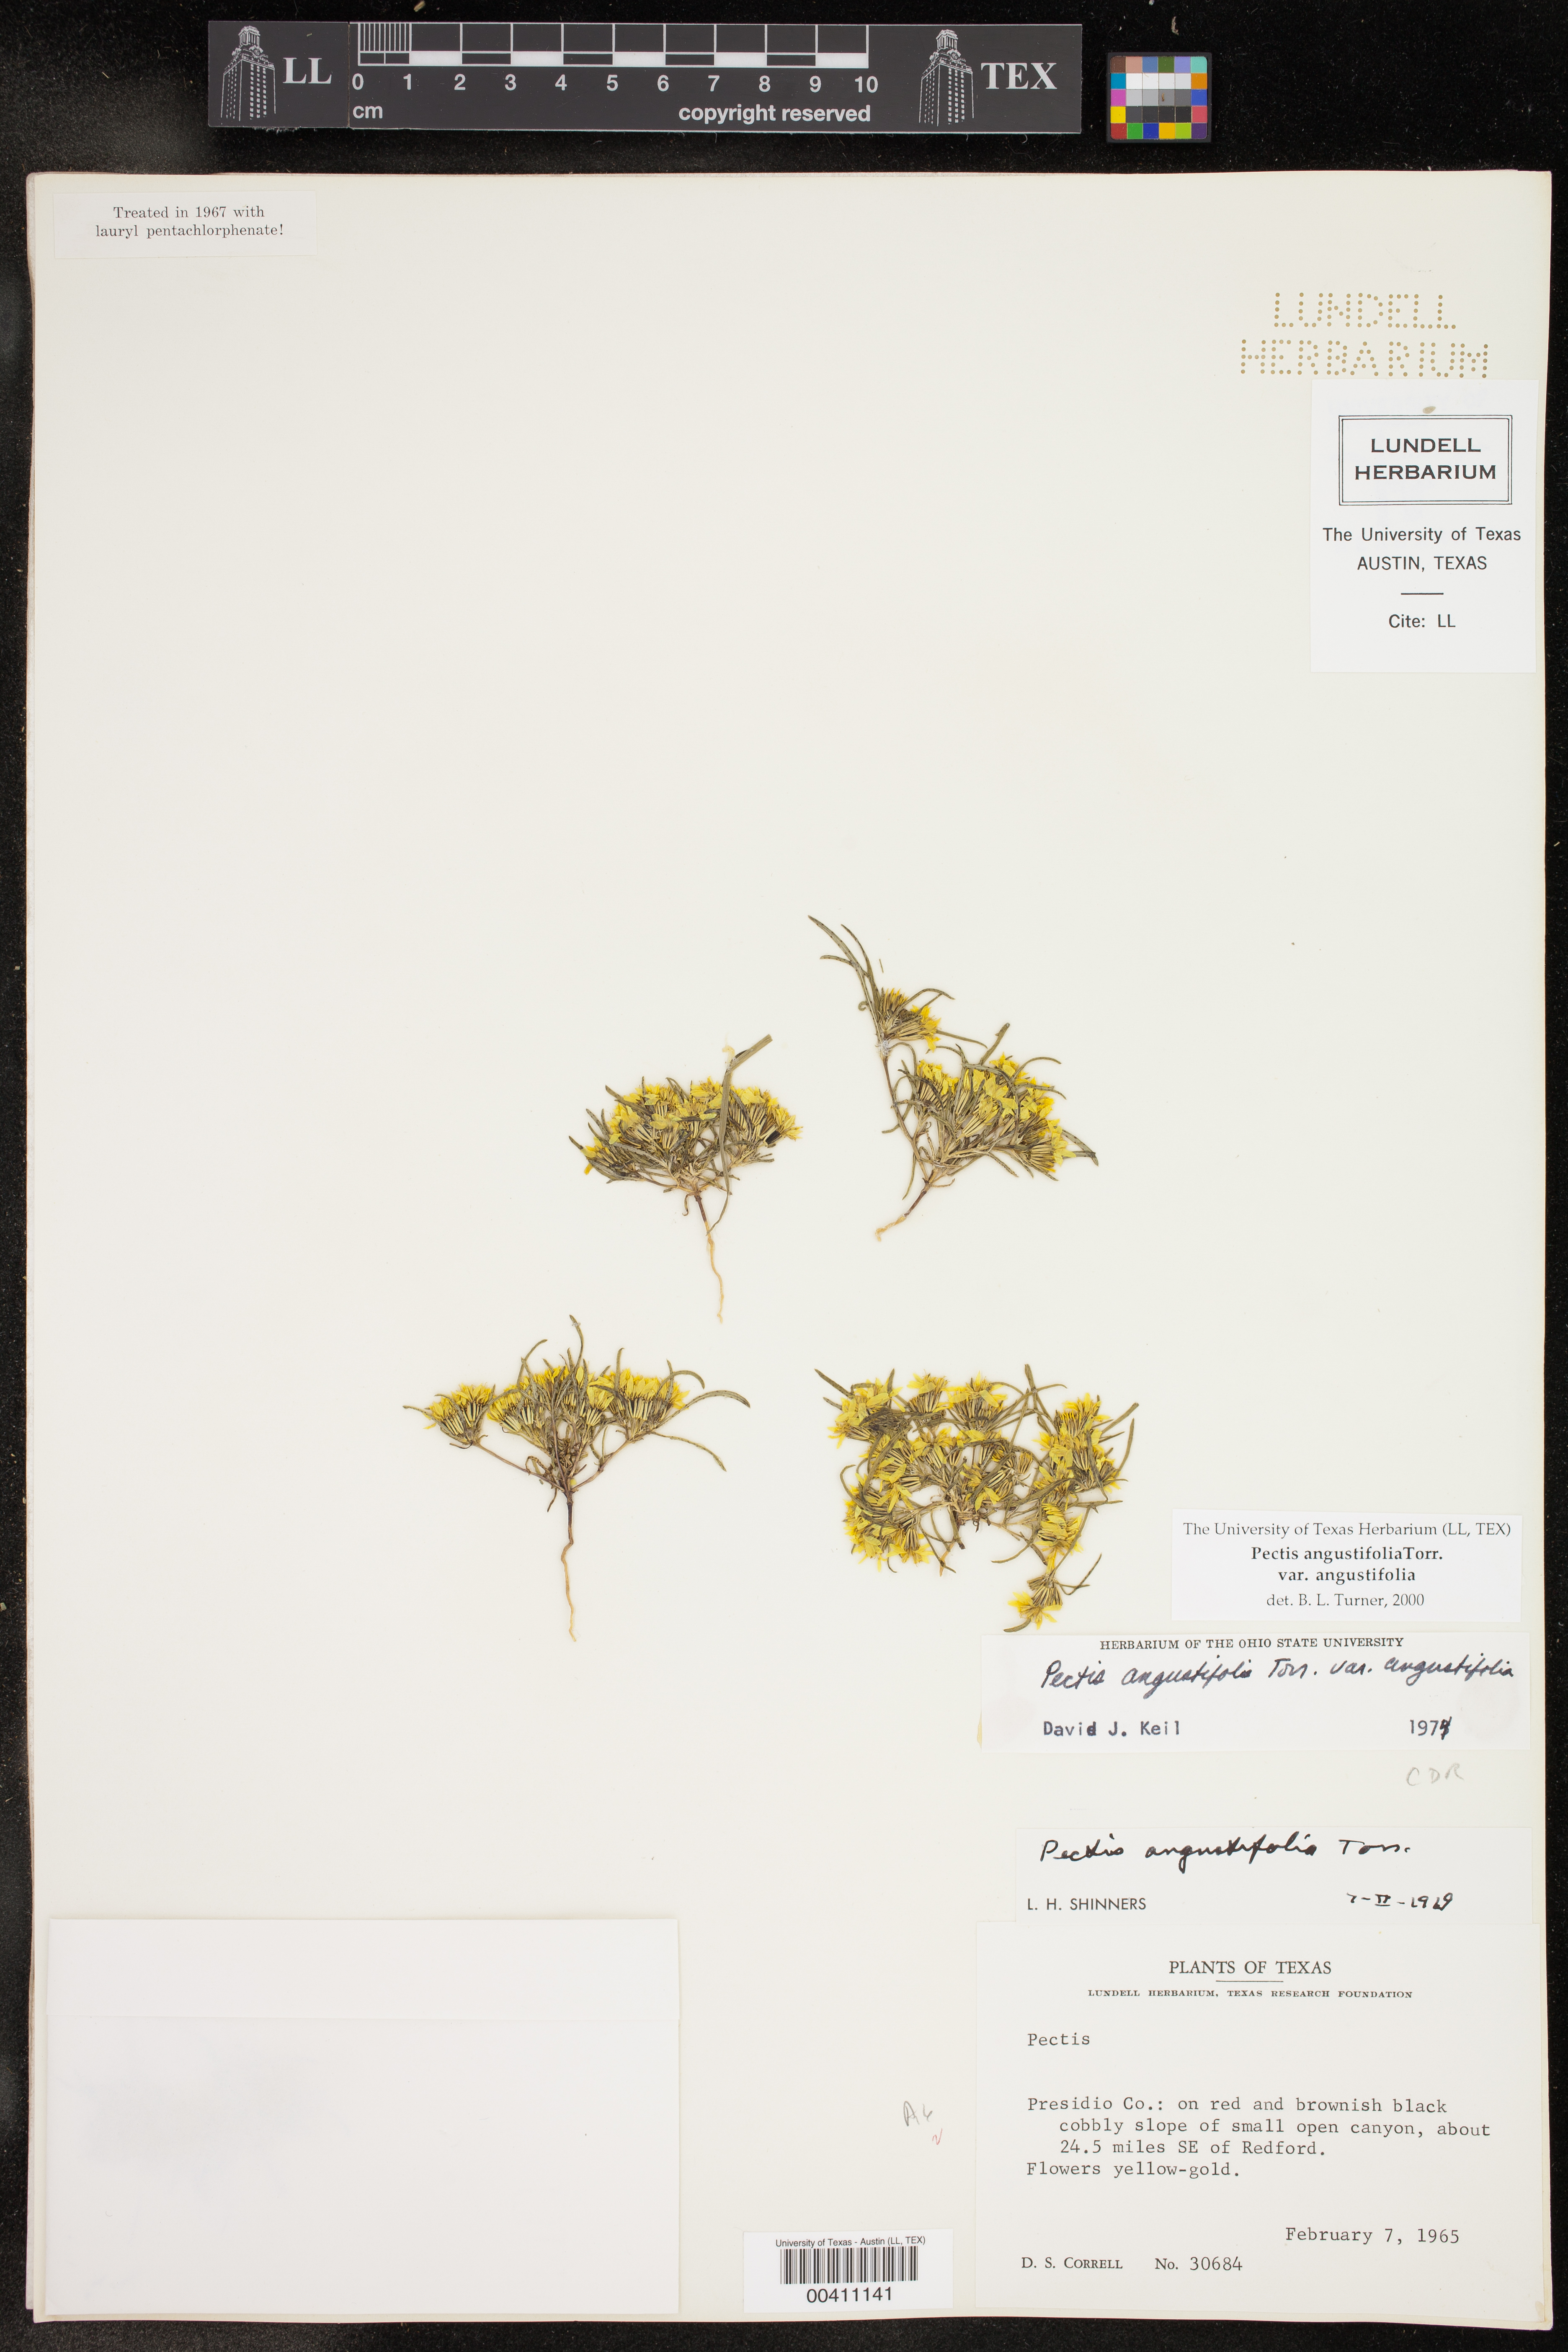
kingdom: Plantae
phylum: Tracheophyta
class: Magnoliopsida
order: Asterales
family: Asteraceae
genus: Pectis
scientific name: Pectis angustifolia
